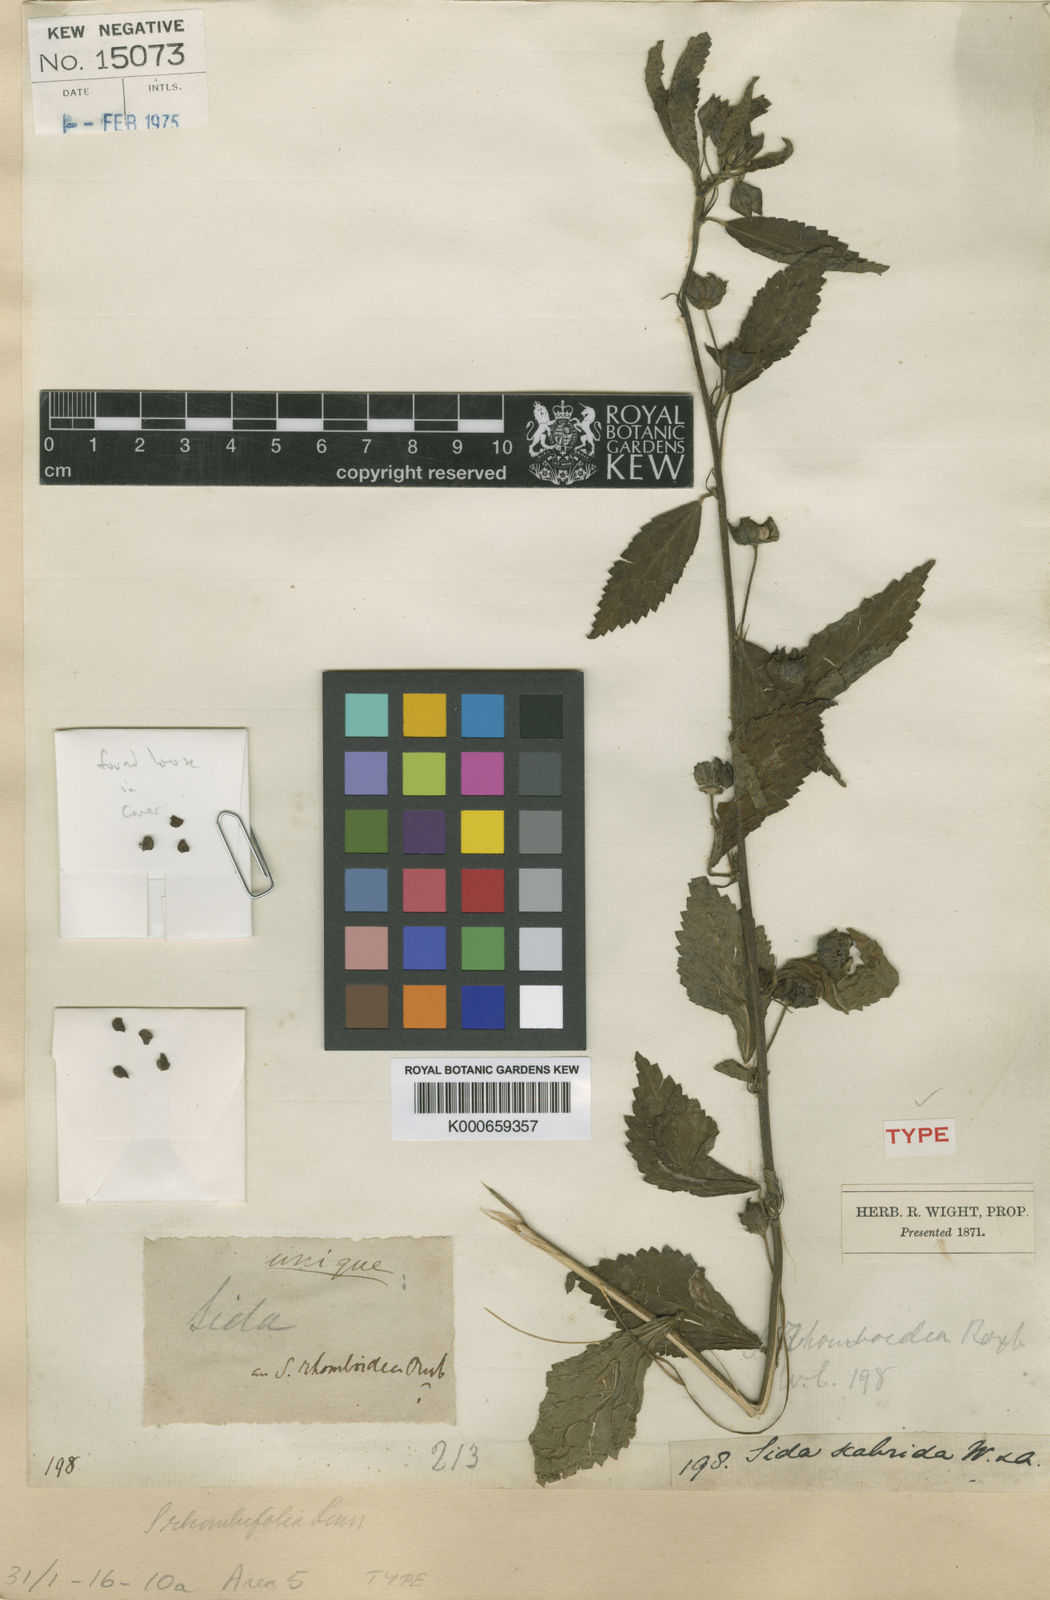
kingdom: Plantae
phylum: Tracheophyta
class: Magnoliopsida
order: Malvales
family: Malvaceae
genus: Sida
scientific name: Sida rhombifolia
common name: Queensland-hemp
